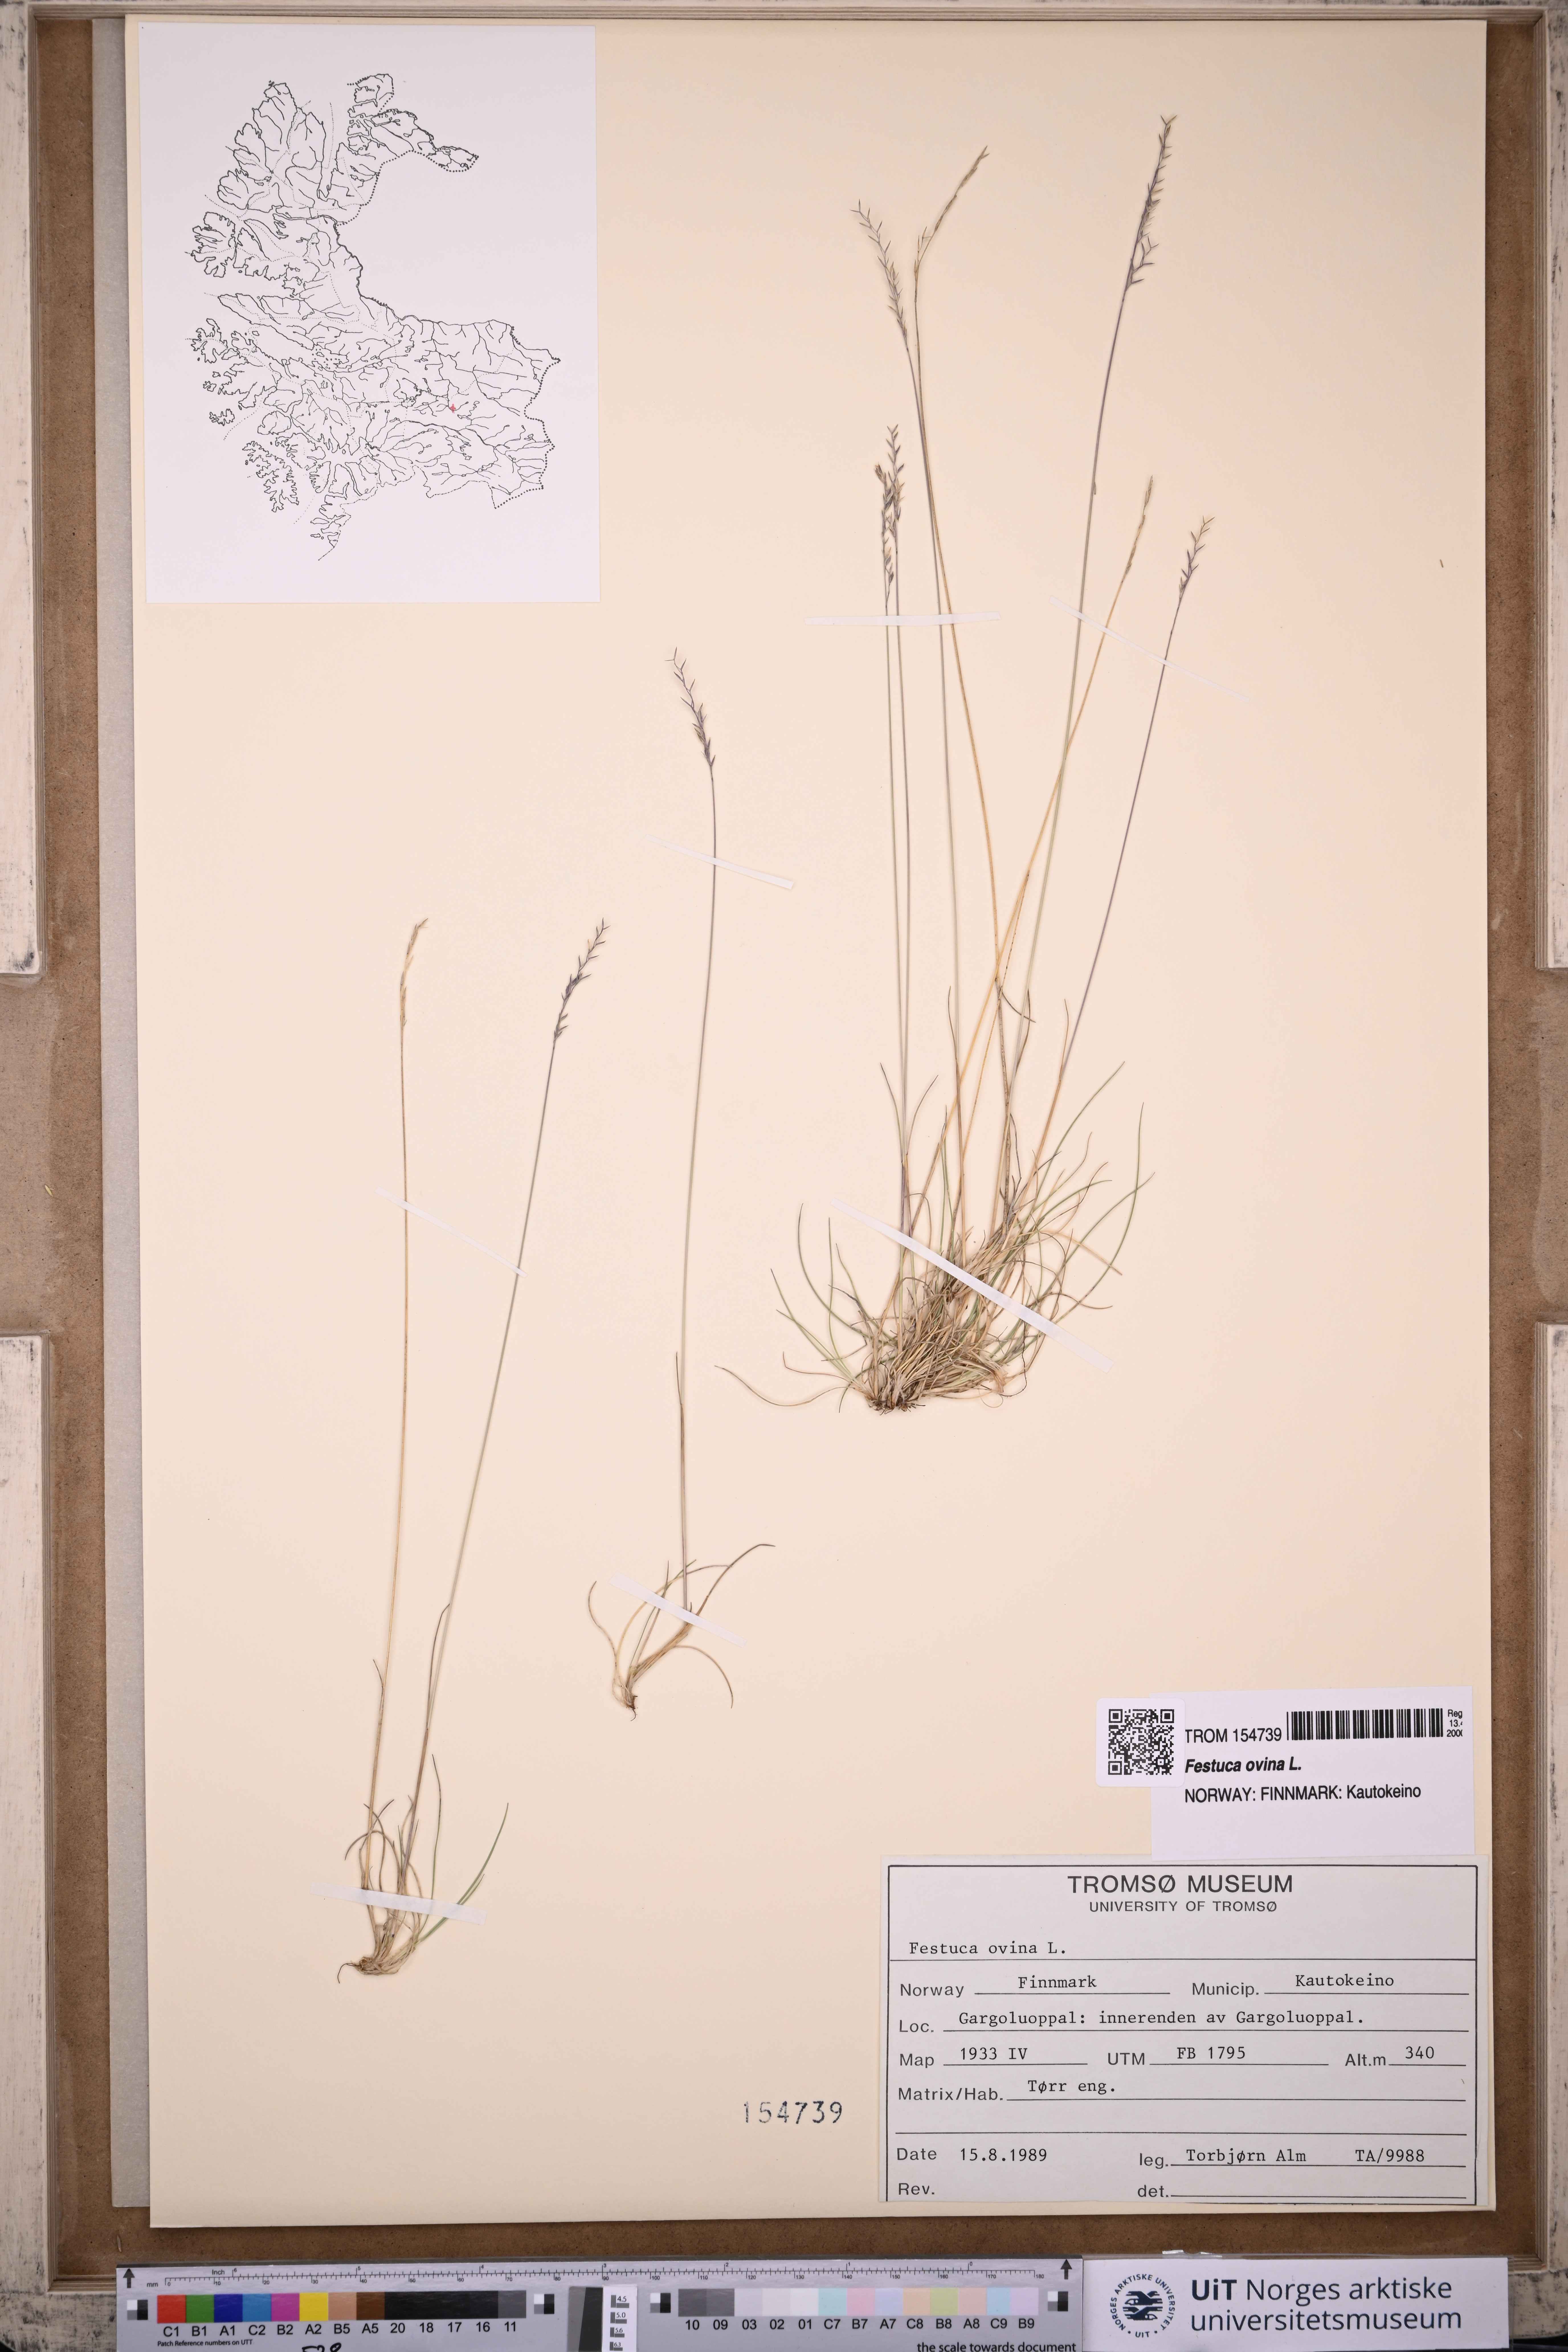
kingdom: Plantae
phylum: Tracheophyta
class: Liliopsida
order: Poales
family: Poaceae
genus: Festuca
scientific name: Festuca ovina
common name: Sheep fescue
